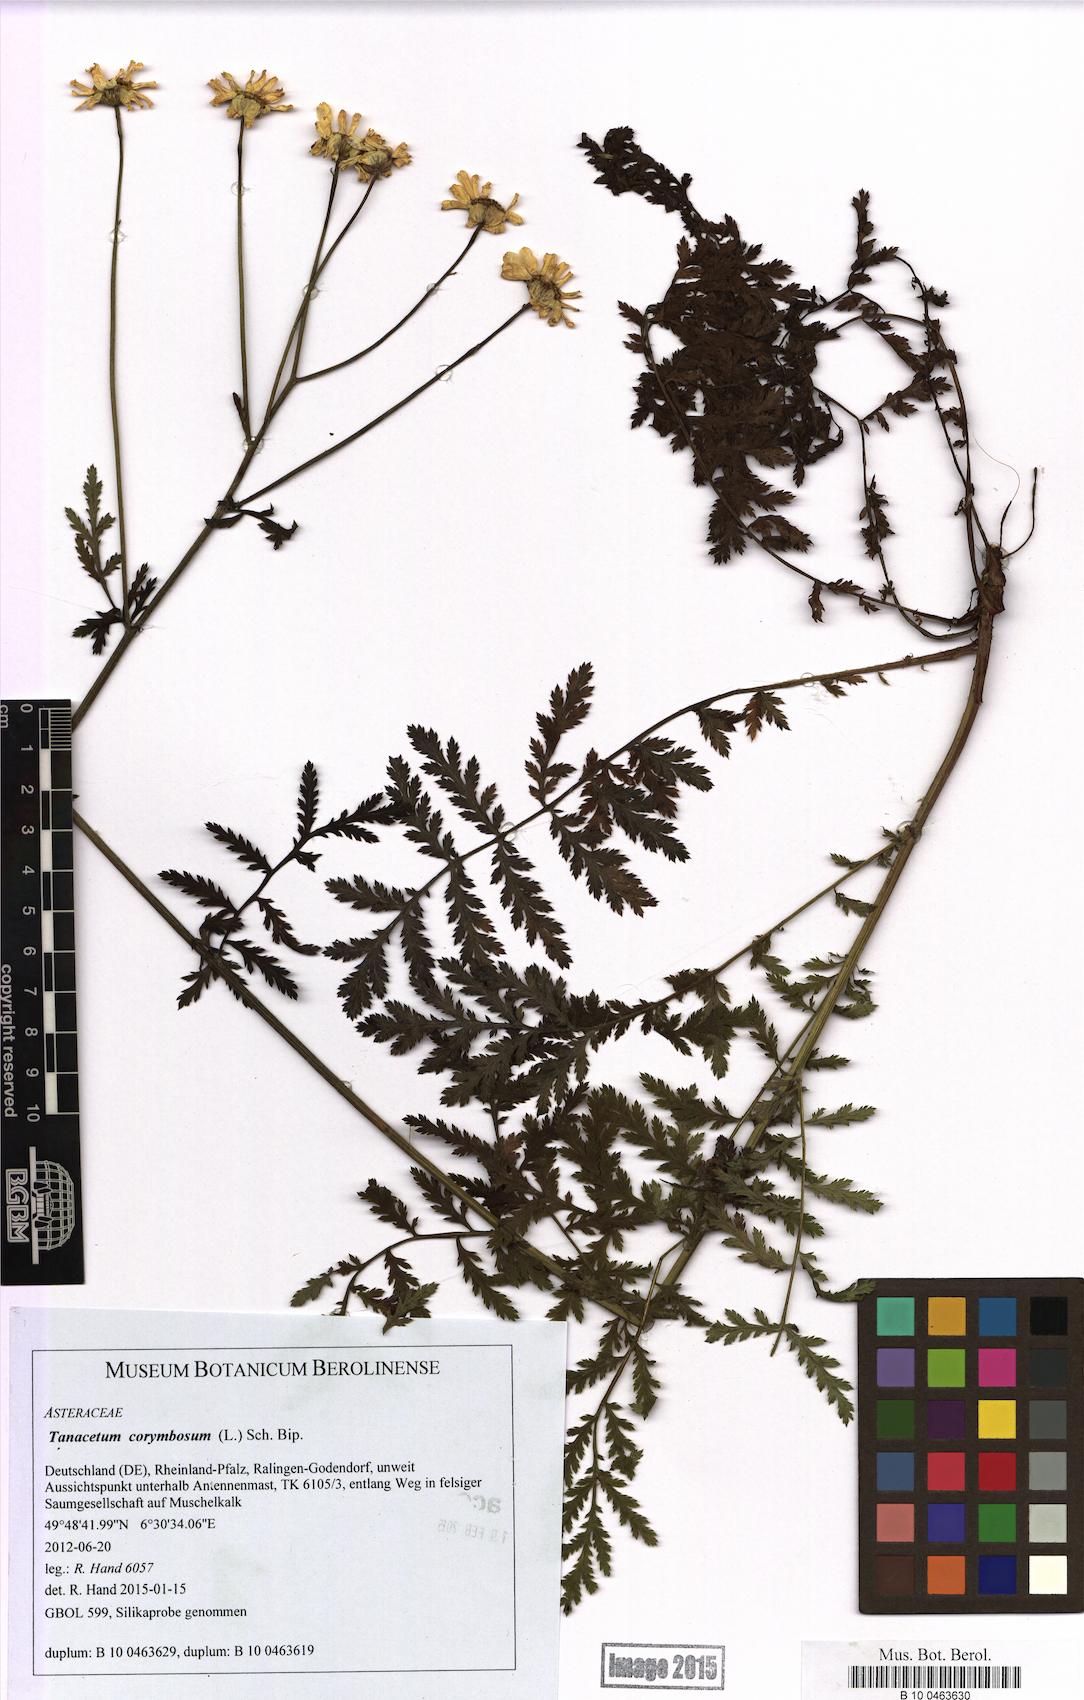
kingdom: Plantae
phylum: Tracheophyta
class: Magnoliopsida
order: Asterales
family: Asteraceae
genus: Tanacetum
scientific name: Tanacetum corymbosum
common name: Scentless feverfew
